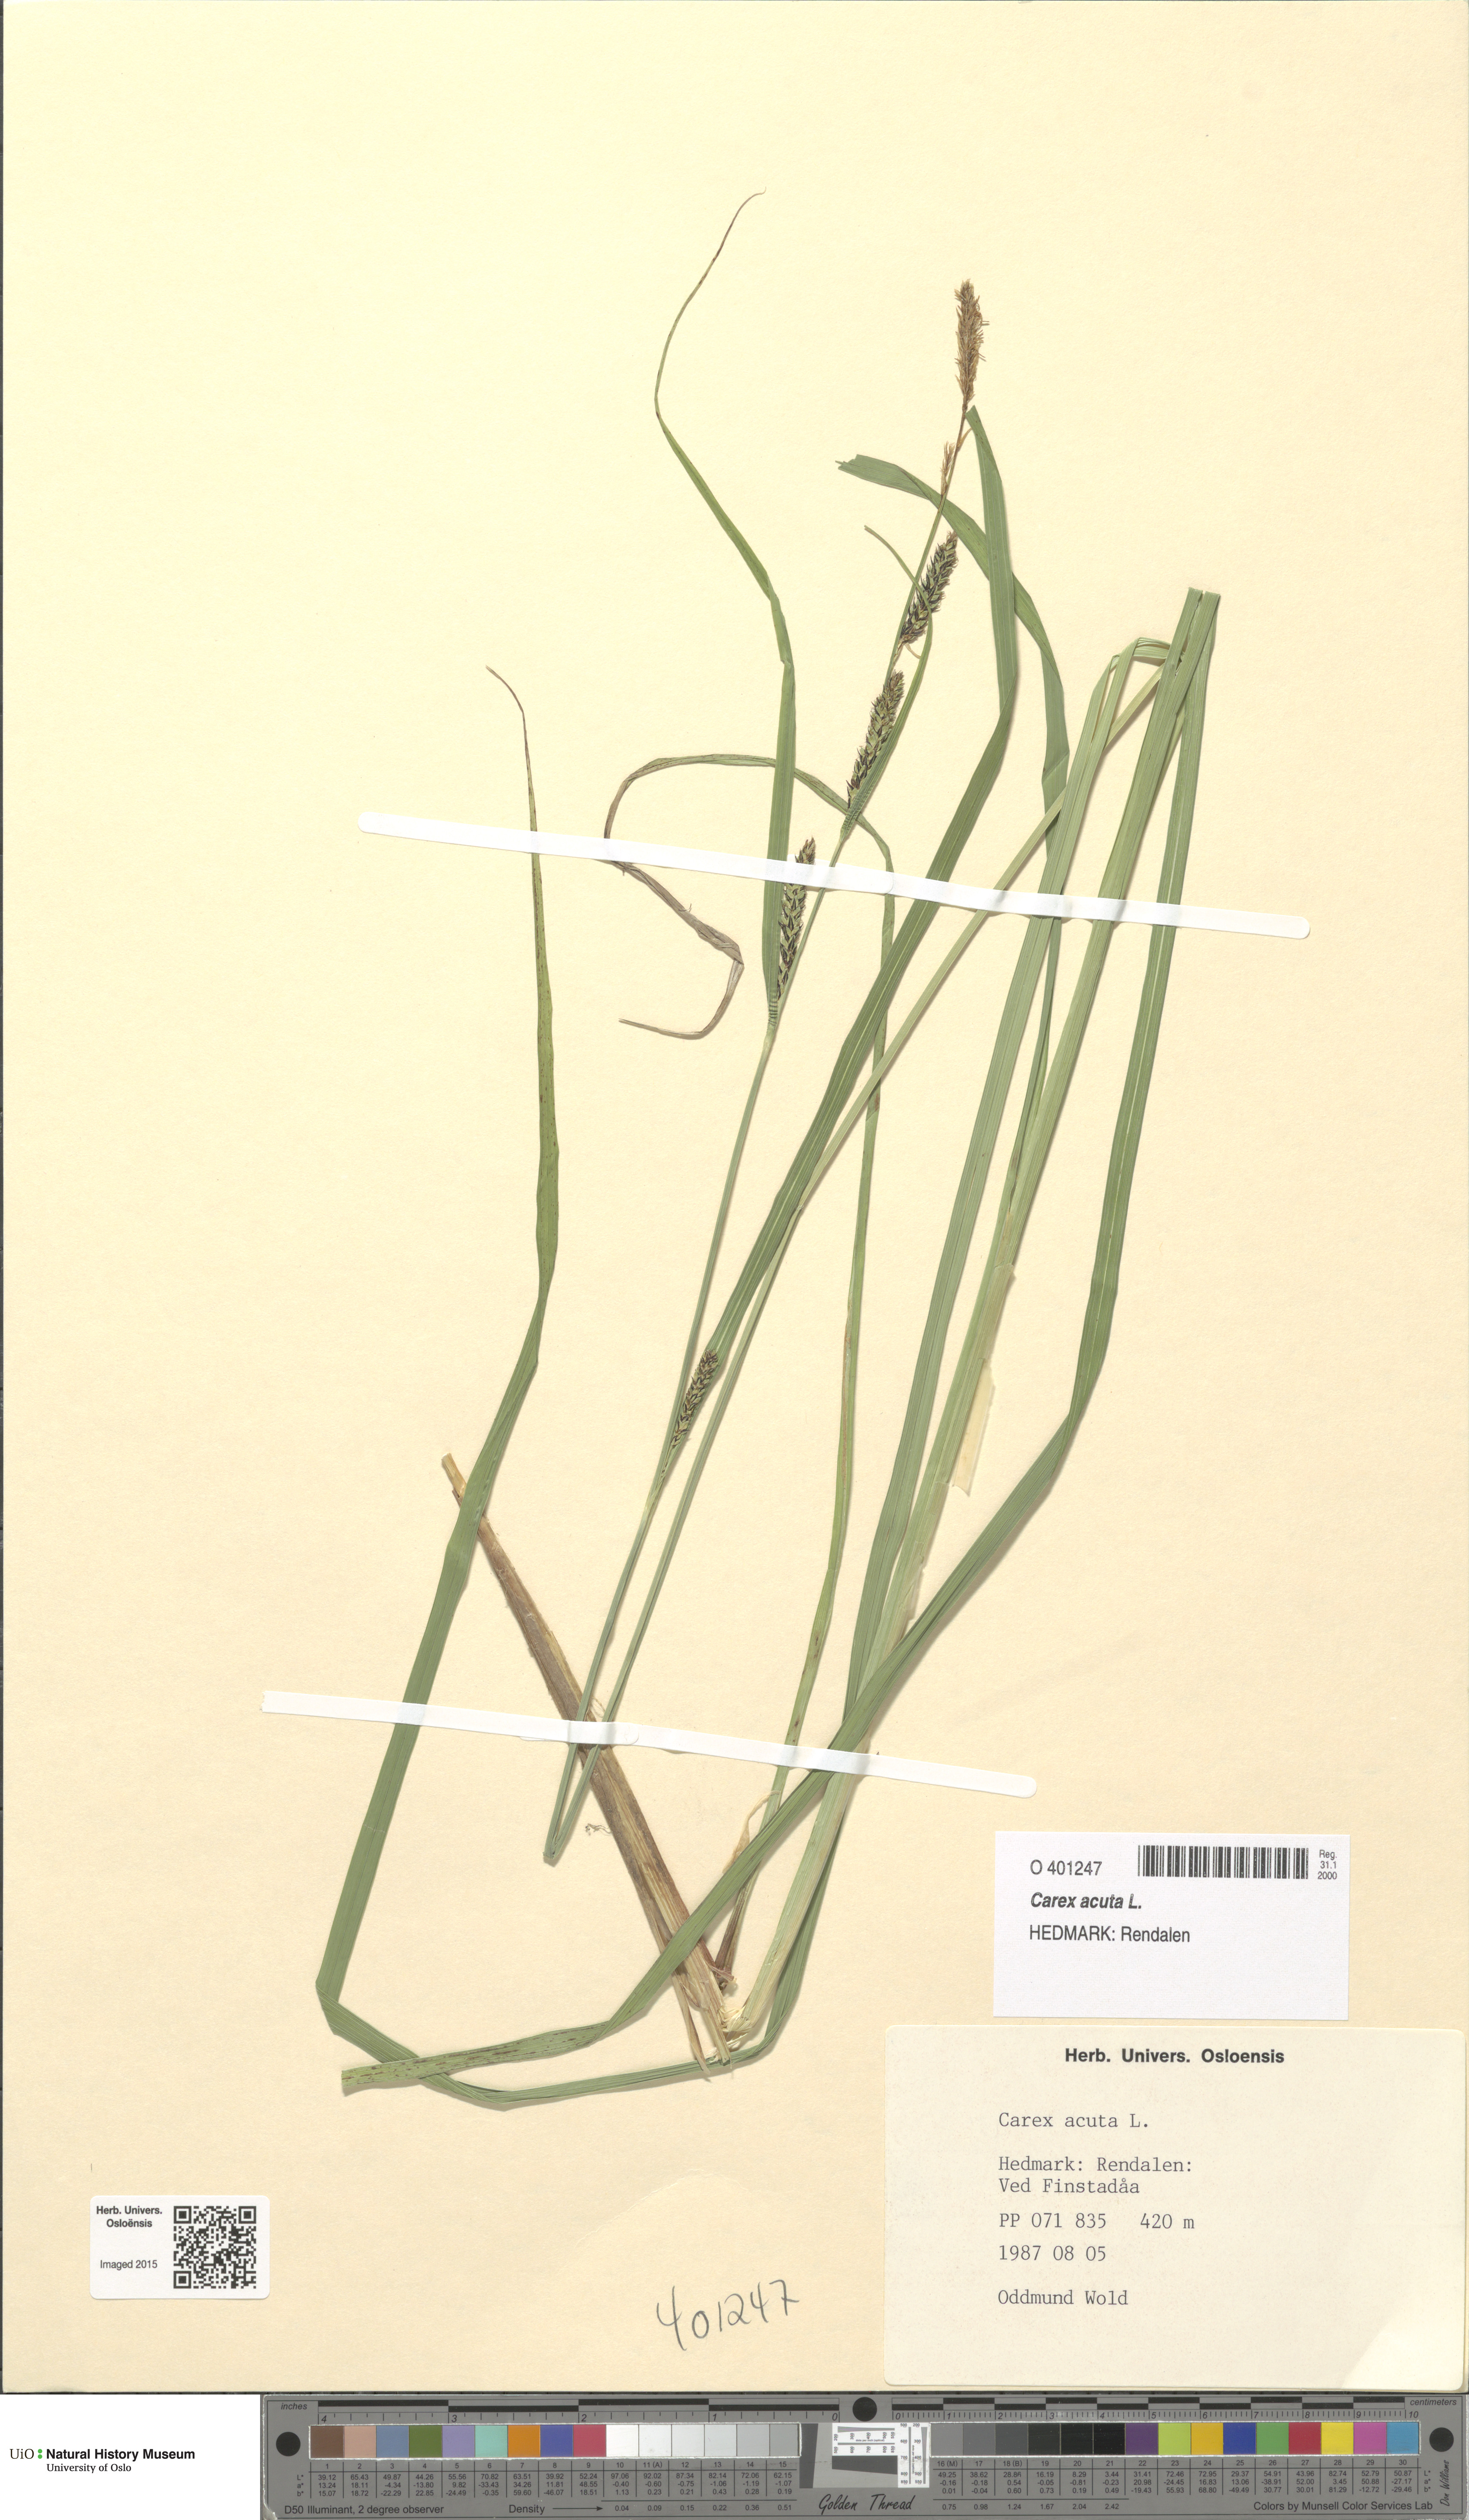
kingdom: Plantae
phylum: Tracheophyta
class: Liliopsida
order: Poales
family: Cyperaceae
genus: Carex
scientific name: Carex acuta
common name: Slender tufted-sedge
